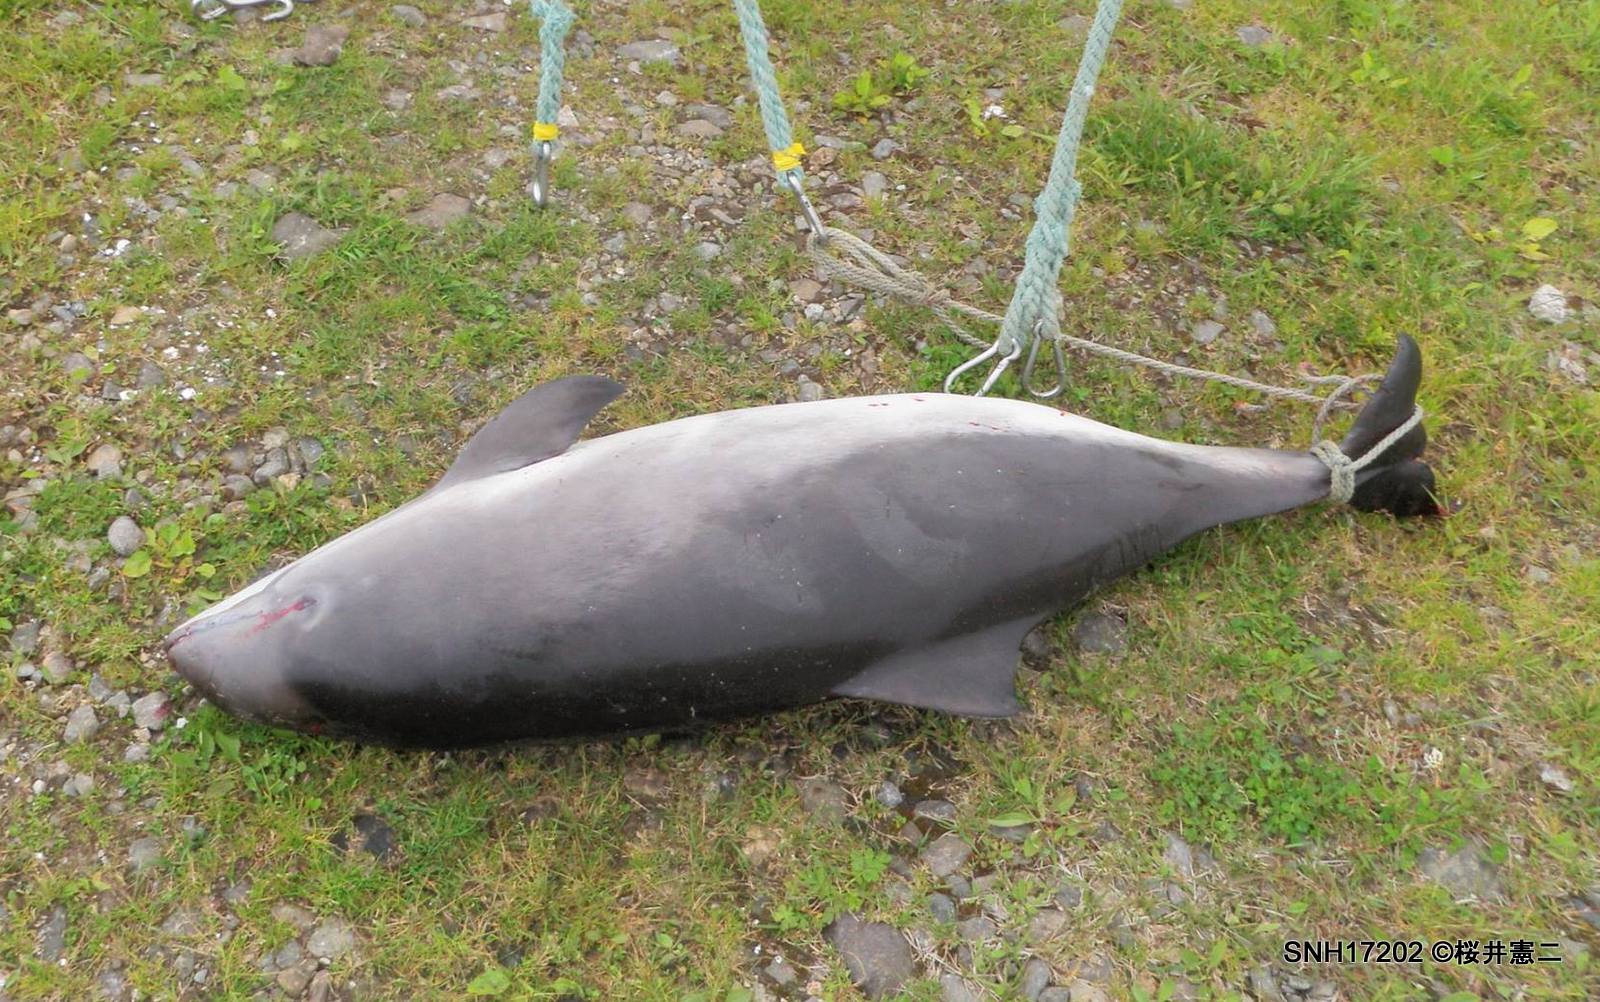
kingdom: Animalia
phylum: Chordata
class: Mammalia
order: Cetacea
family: Phocoenidae
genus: Phocoena
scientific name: Phocoena phocoena
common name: Harbour porpoise
